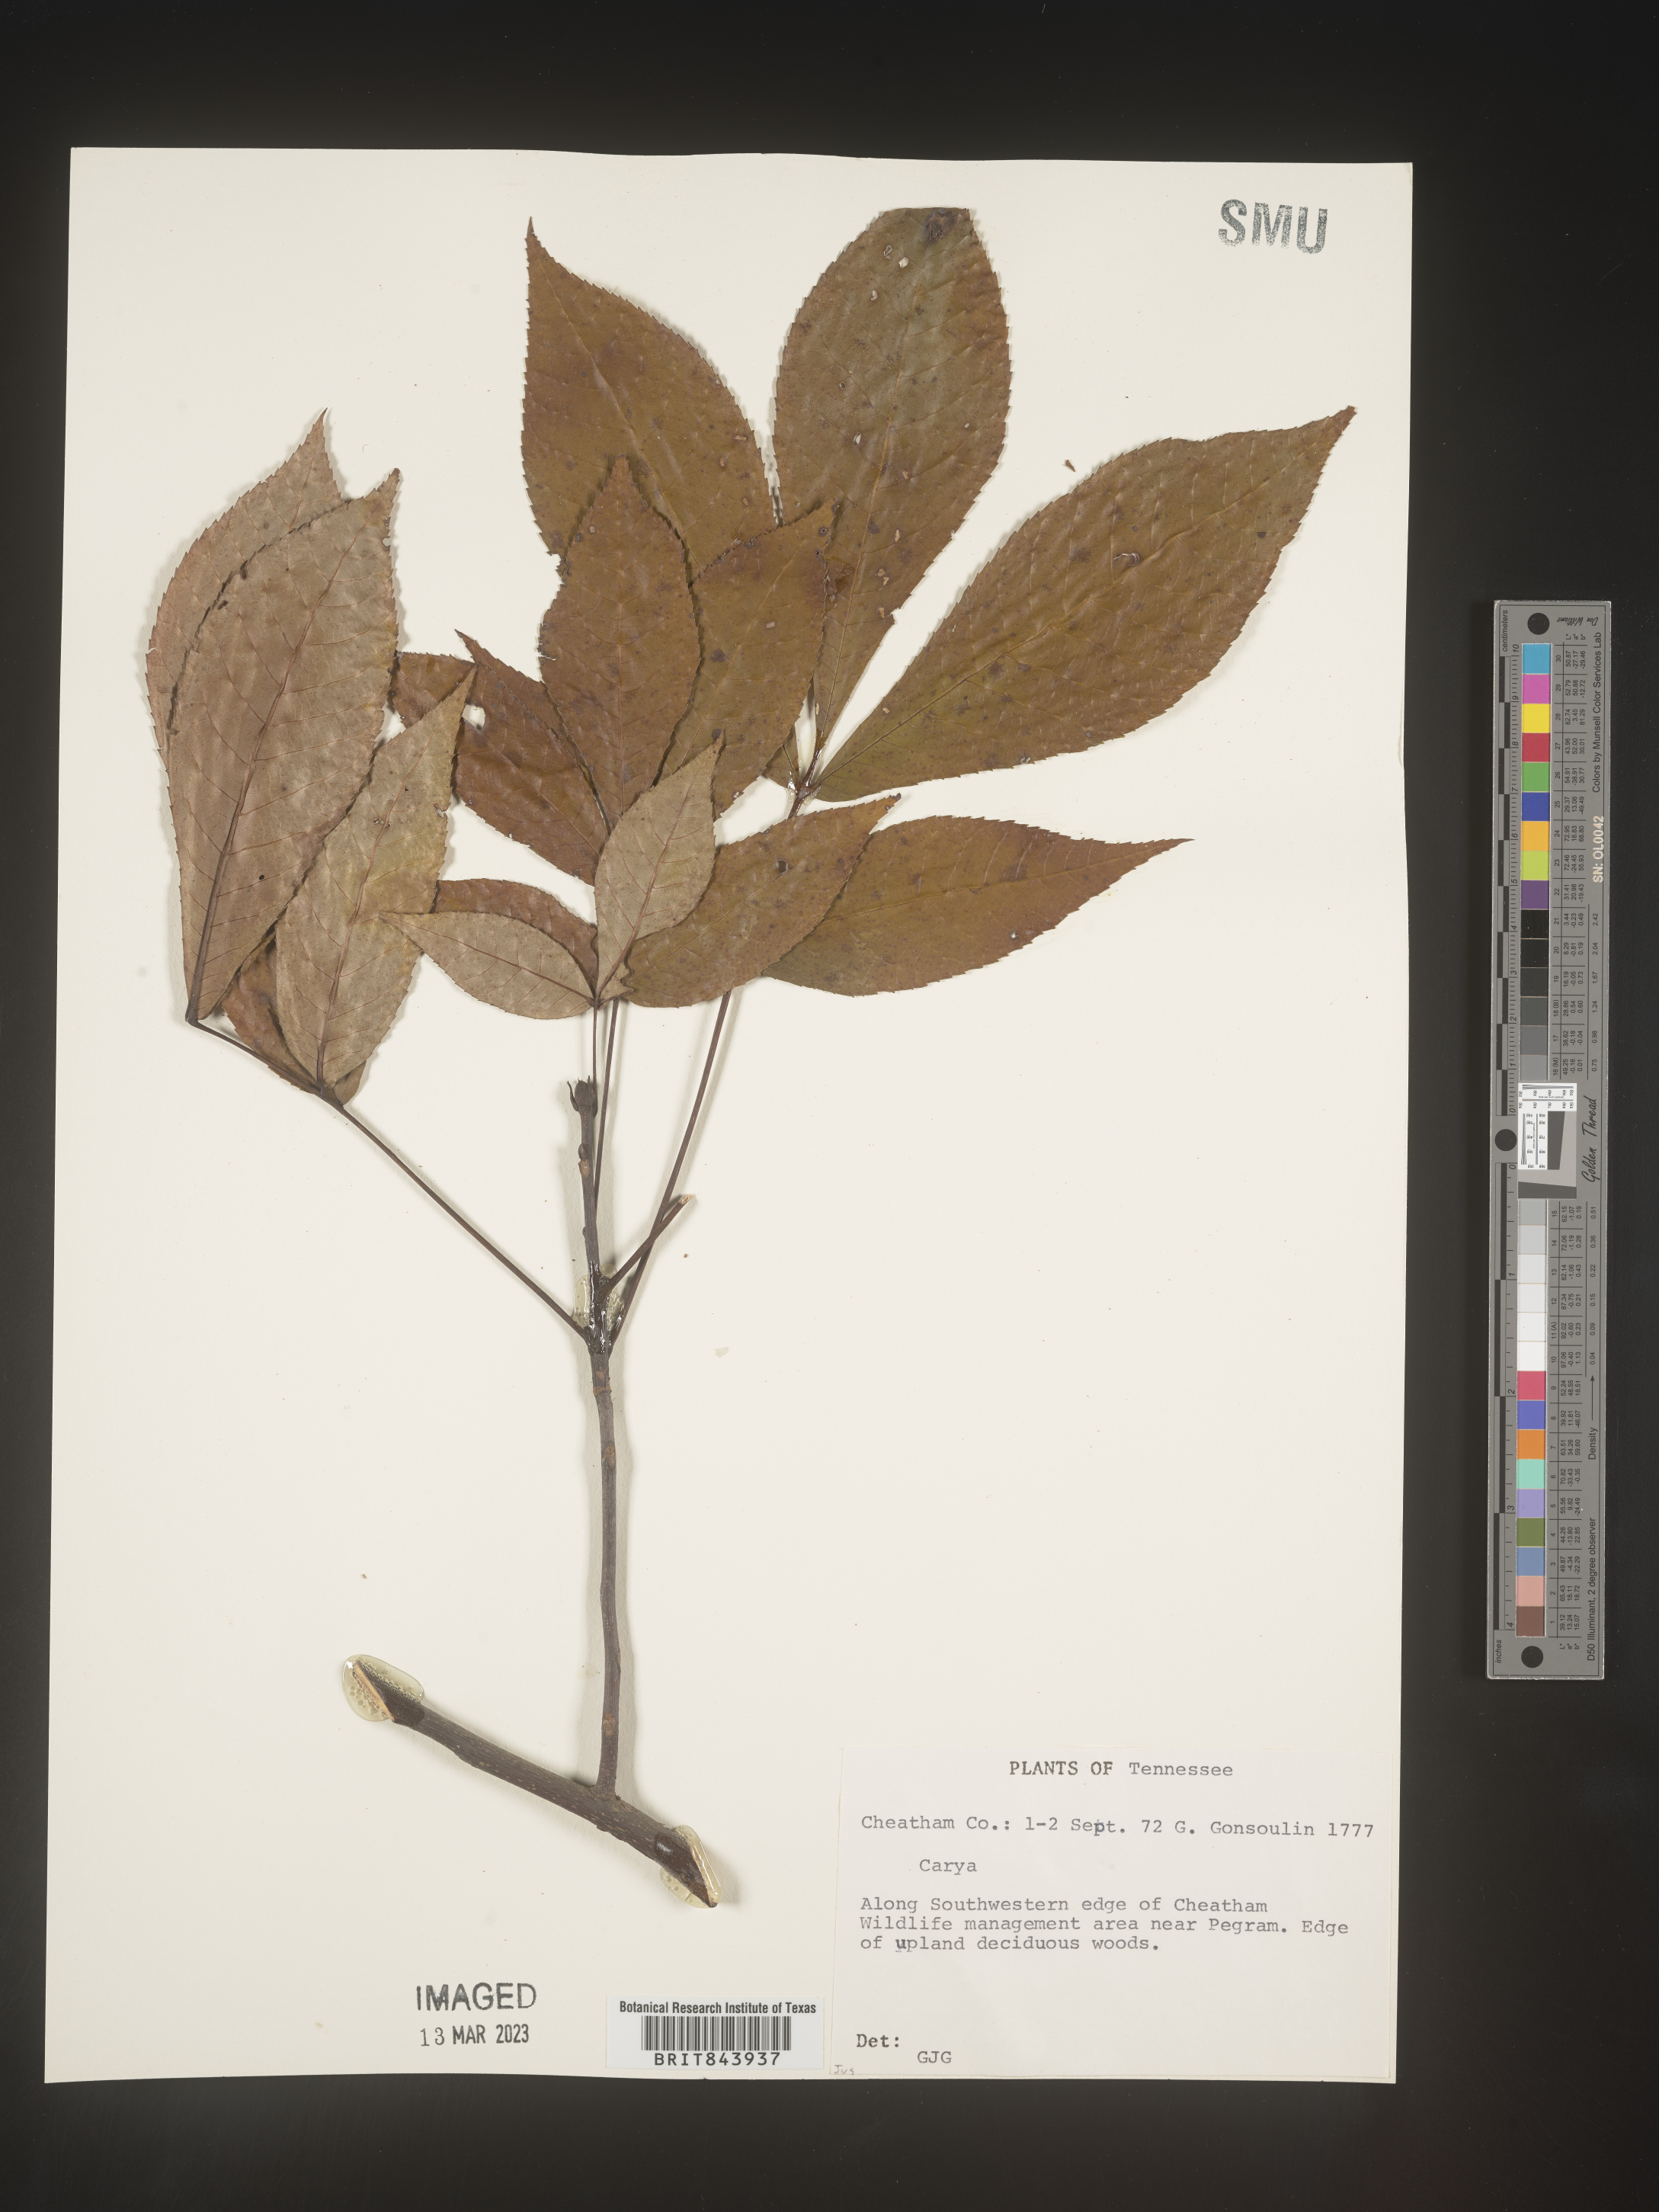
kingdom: Plantae
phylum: Tracheophyta
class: Magnoliopsida
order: Fagales
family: Juglandaceae
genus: Carya
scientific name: Carya
